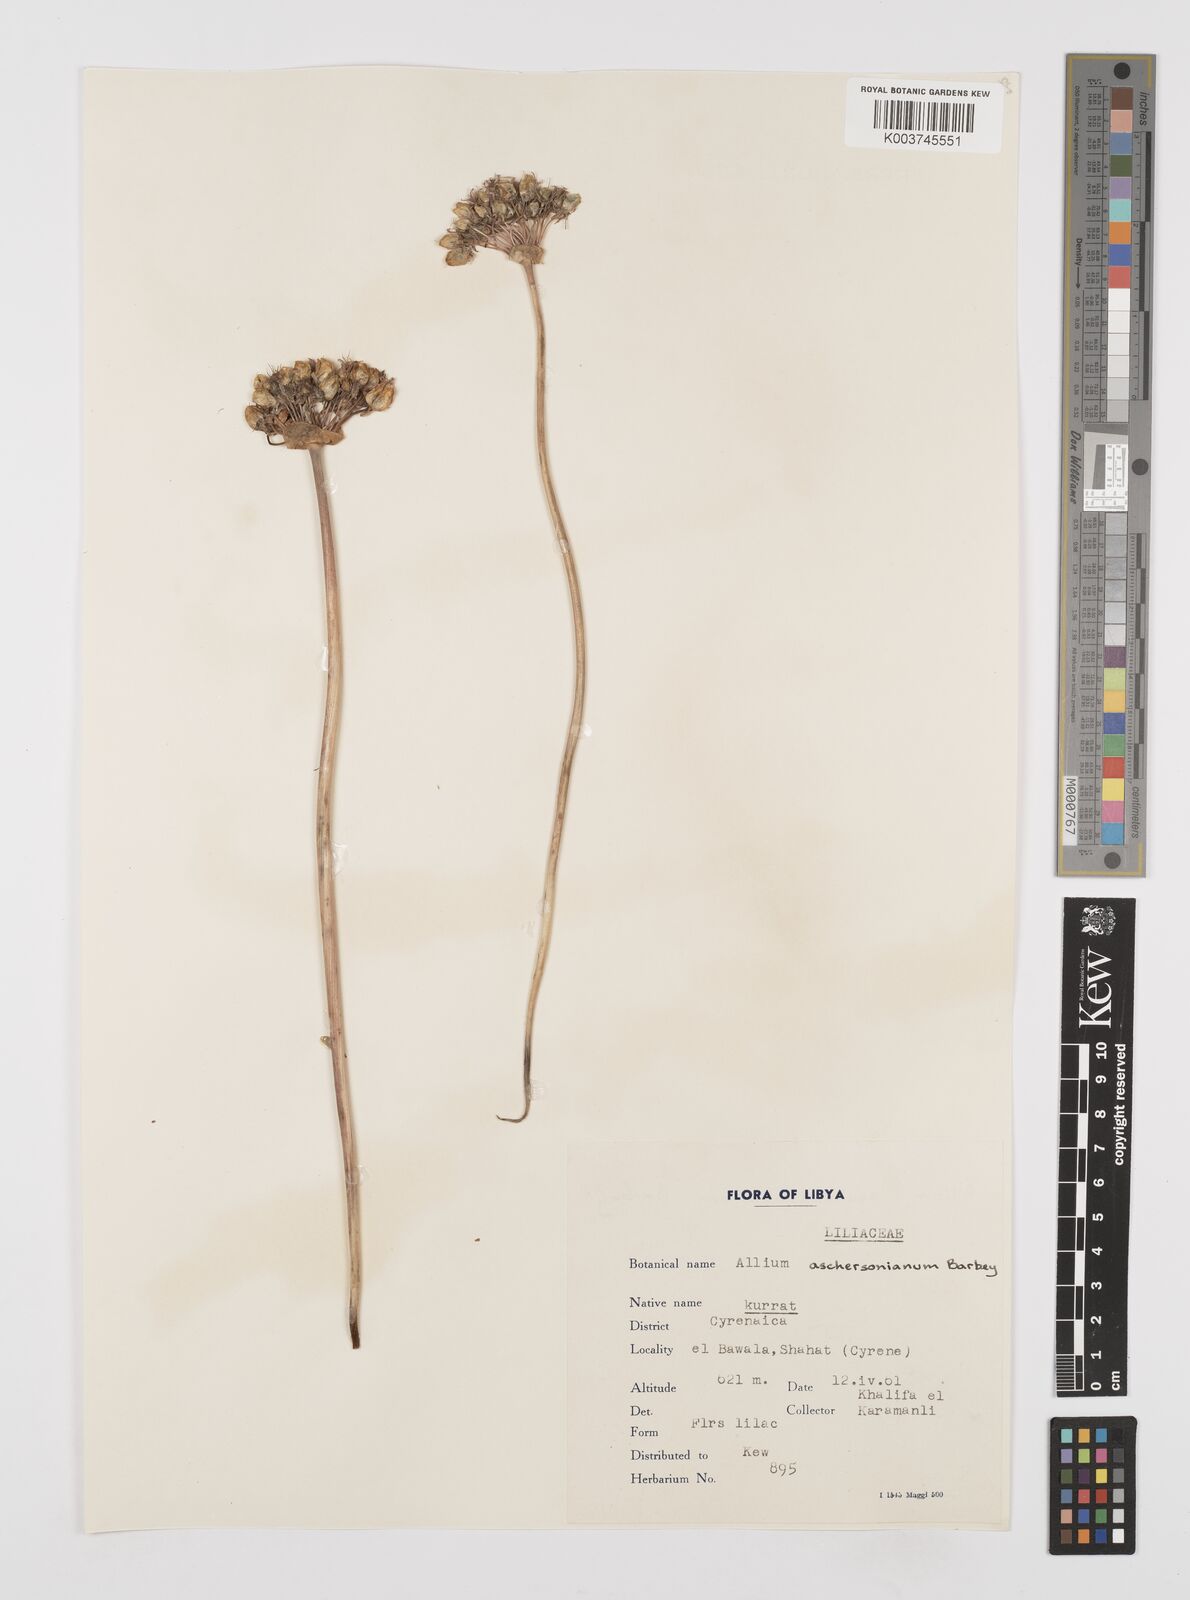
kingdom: Plantae
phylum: Tracheophyta
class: Liliopsida
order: Asparagales
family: Amaryllidaceae
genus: Allium
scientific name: Allium orientale
